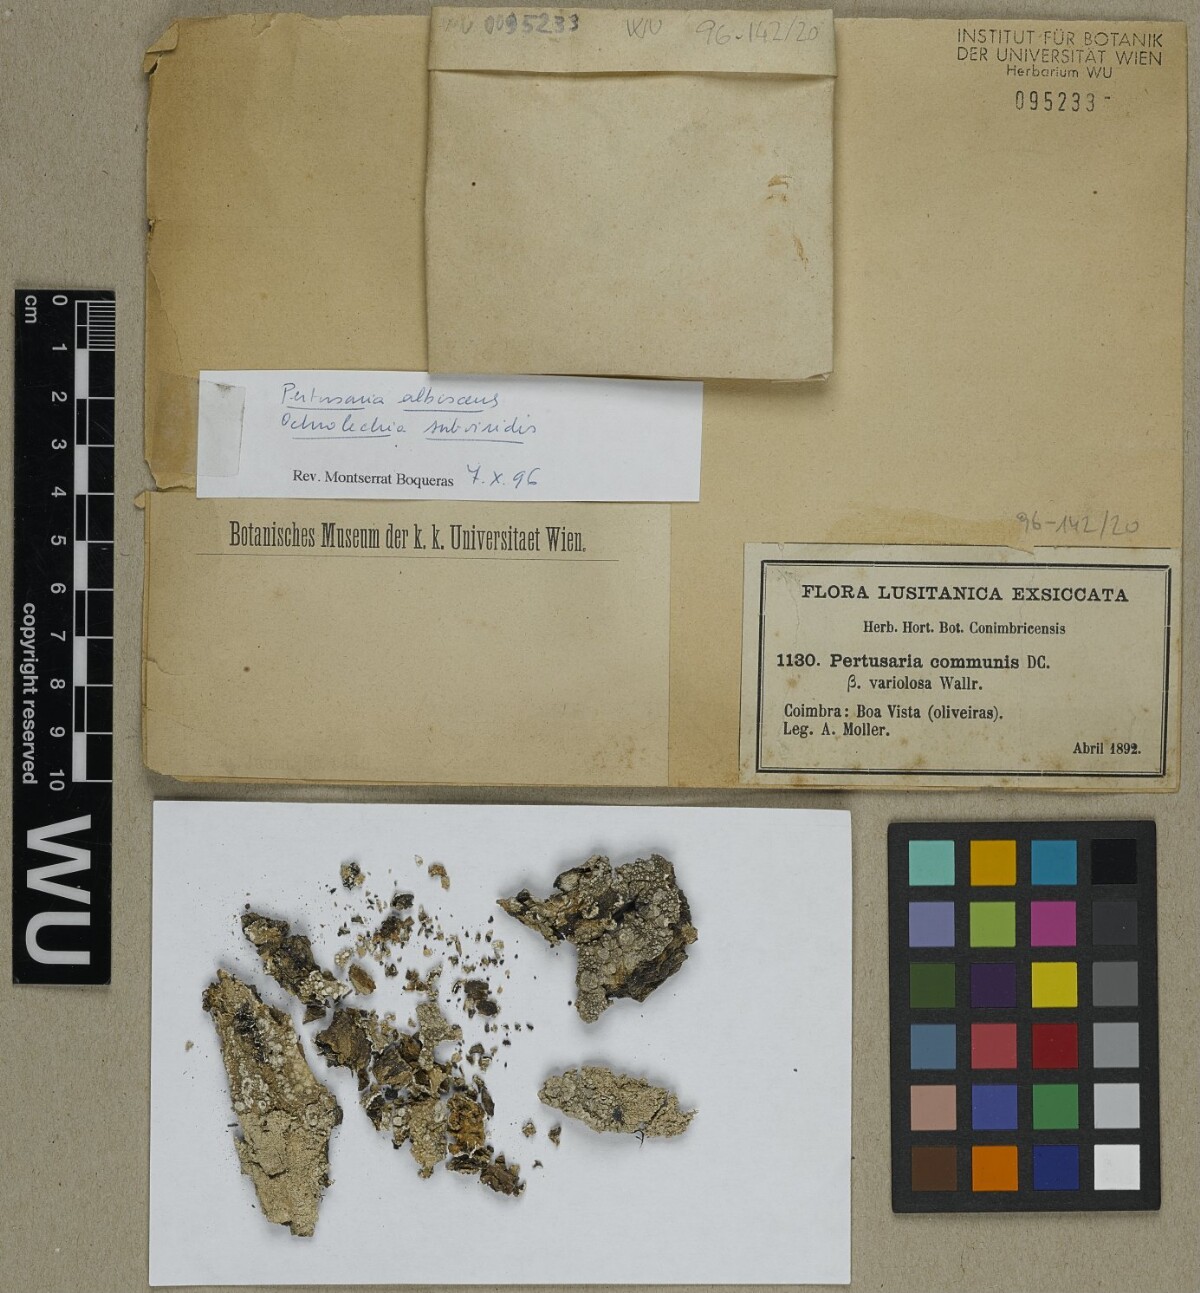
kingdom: Fungi
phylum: Ascomycota
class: Lecanoromycetes
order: Pertusariales
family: Pertusariaceae
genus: Lepra
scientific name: Lepra albescens
